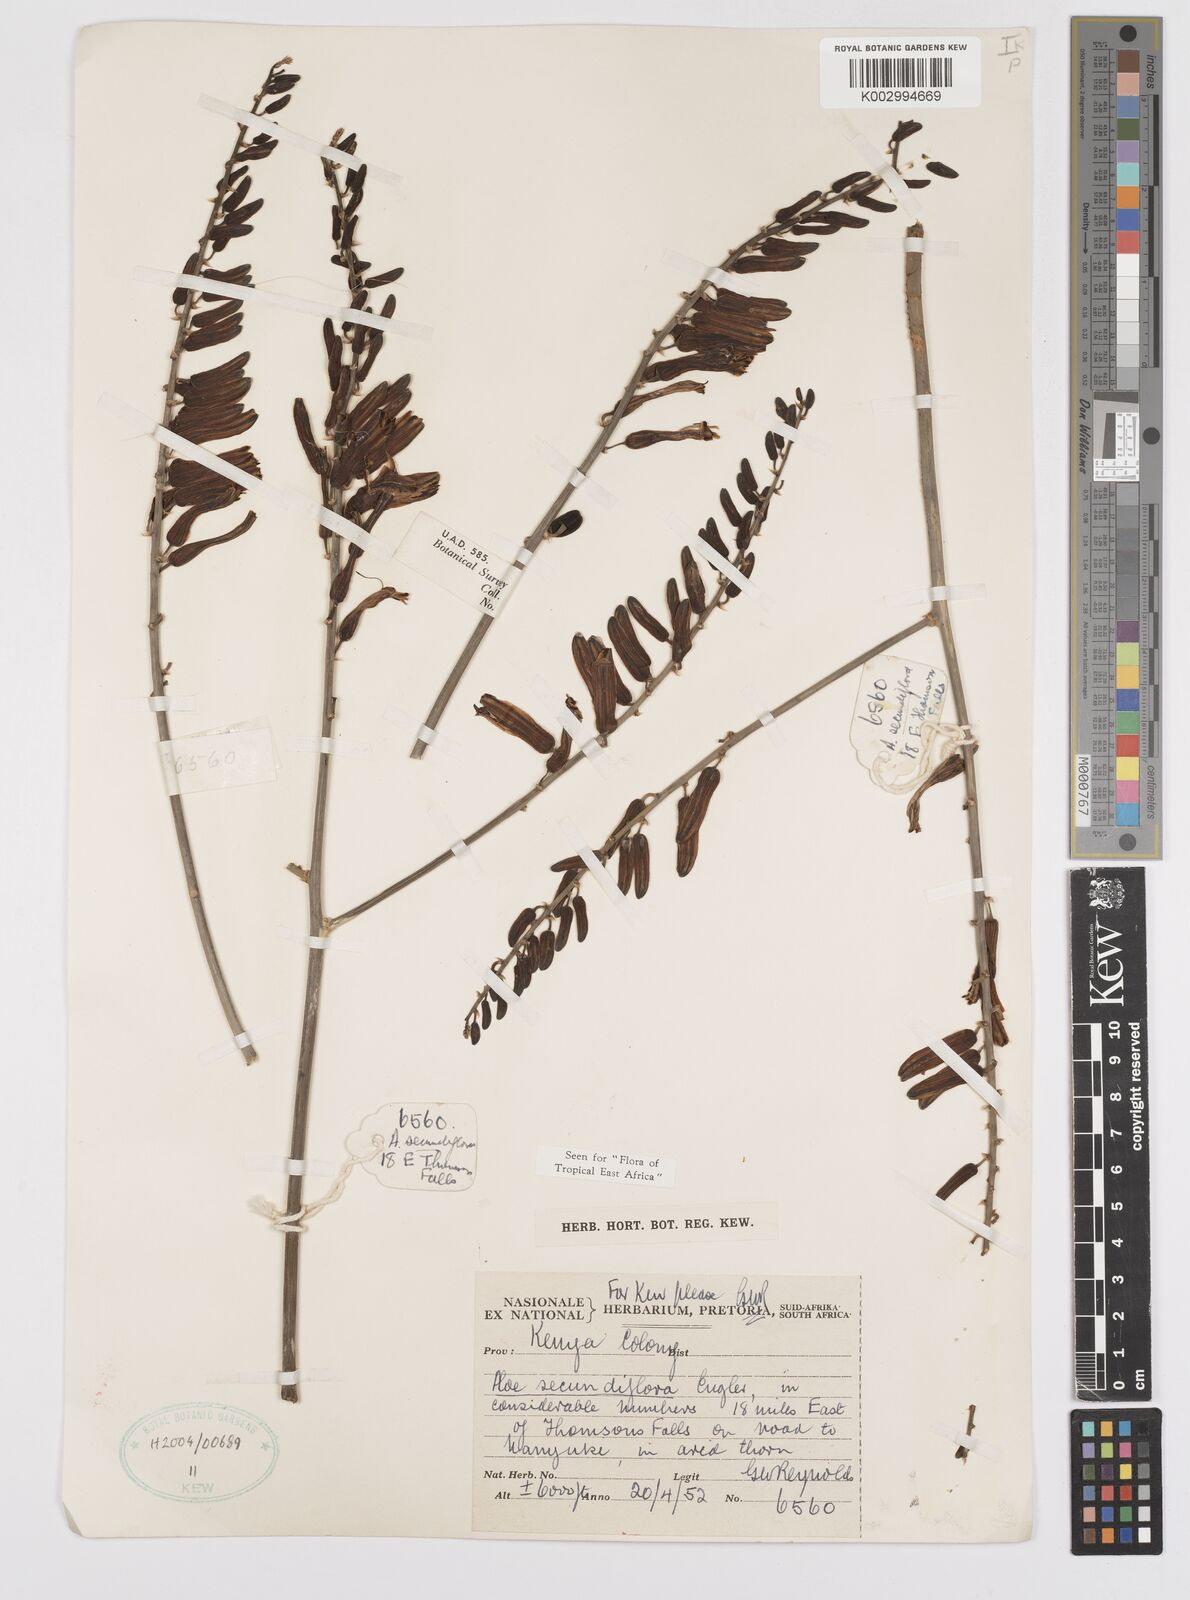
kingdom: Plantae
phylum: Tracheophyta
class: Liliopsida
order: Asparagales
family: Asphodelaceae
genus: Aloe
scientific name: Aloe secundiflora
